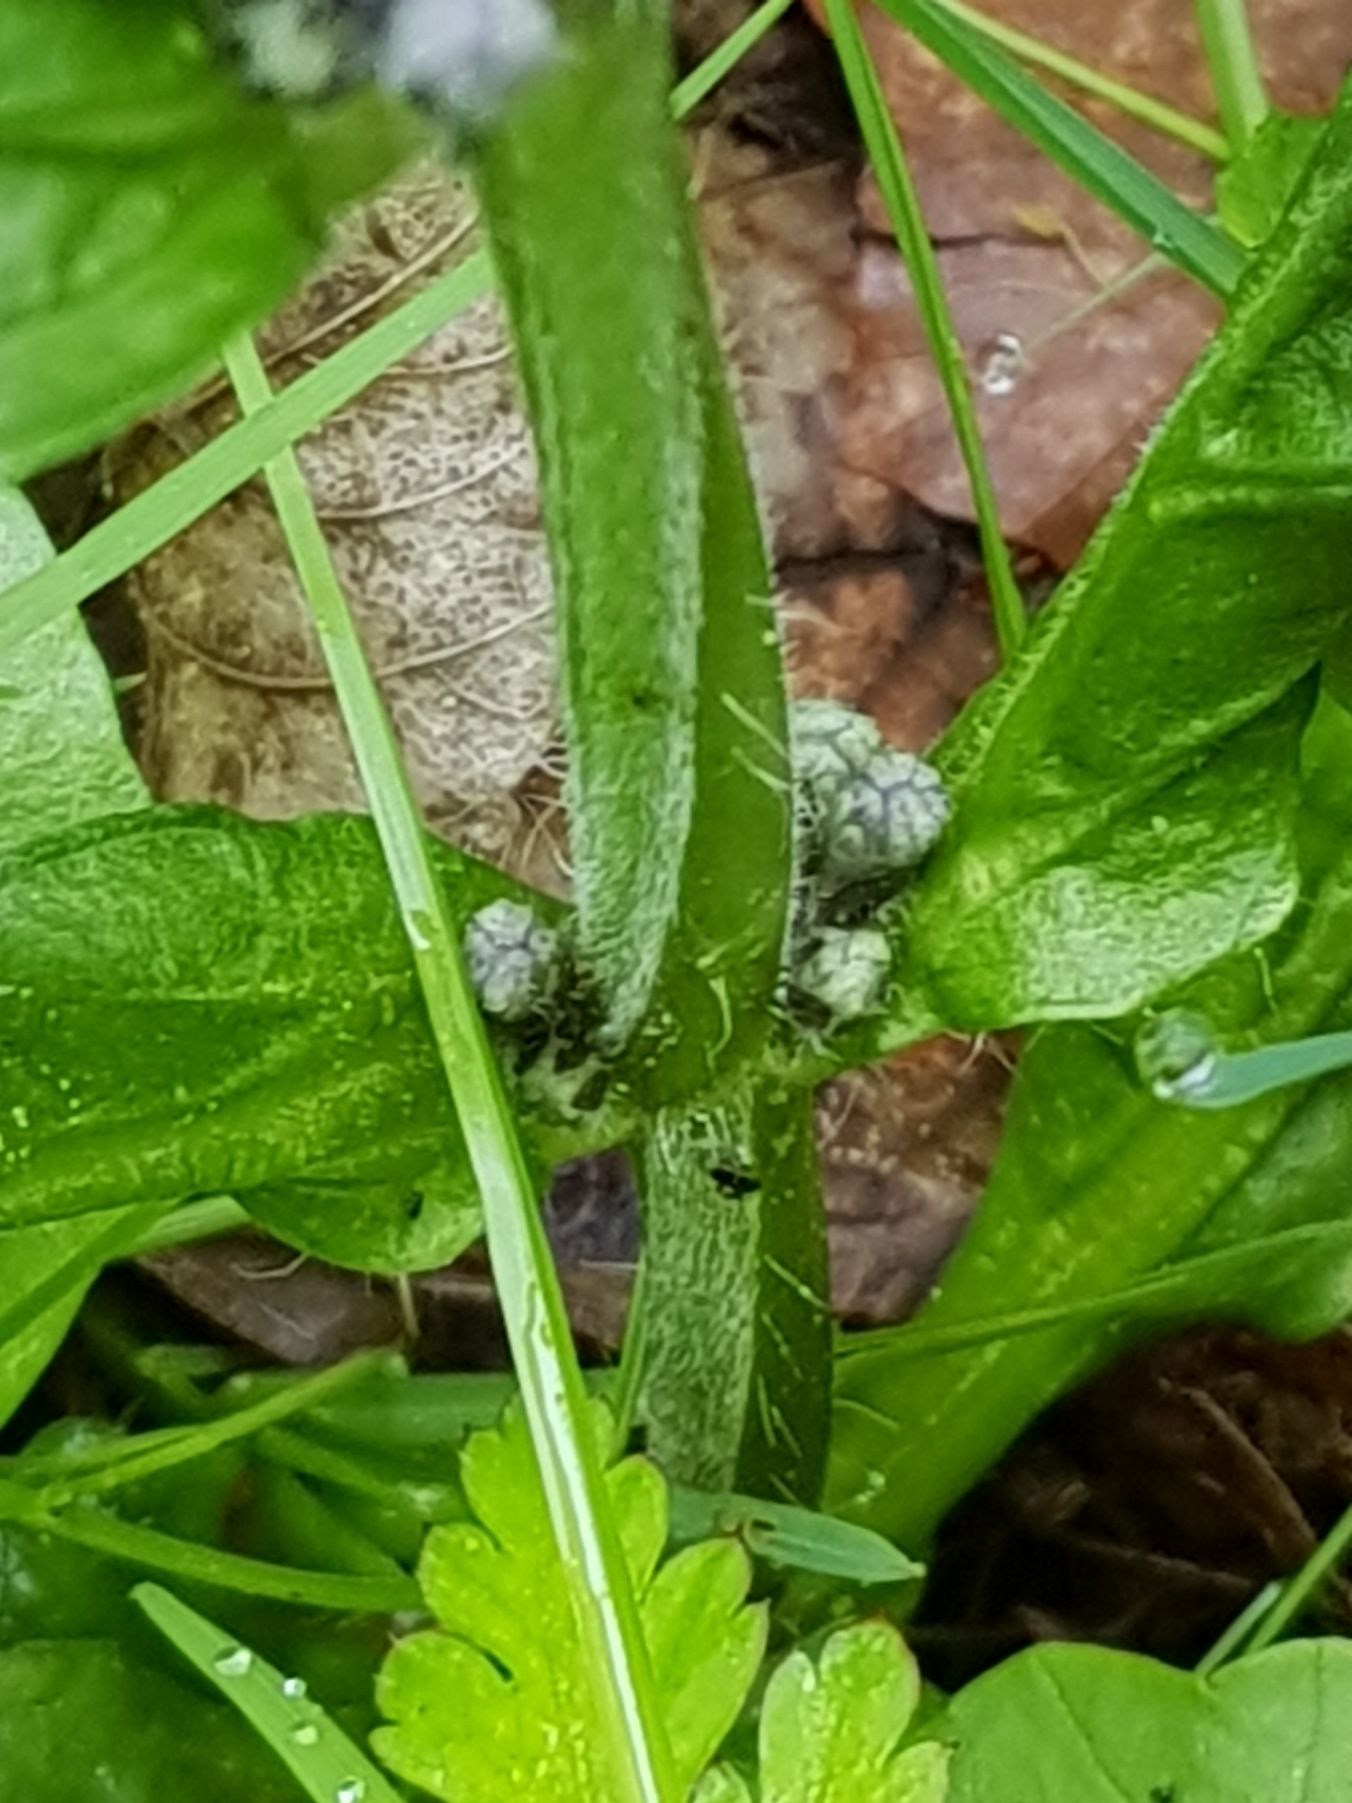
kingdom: Plantae
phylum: Tracheophyta
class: Magnoliopsida
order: Lamiales
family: Lamiaceae
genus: Ajuga
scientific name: Ajuga reptans
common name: Krybende læbeløs
